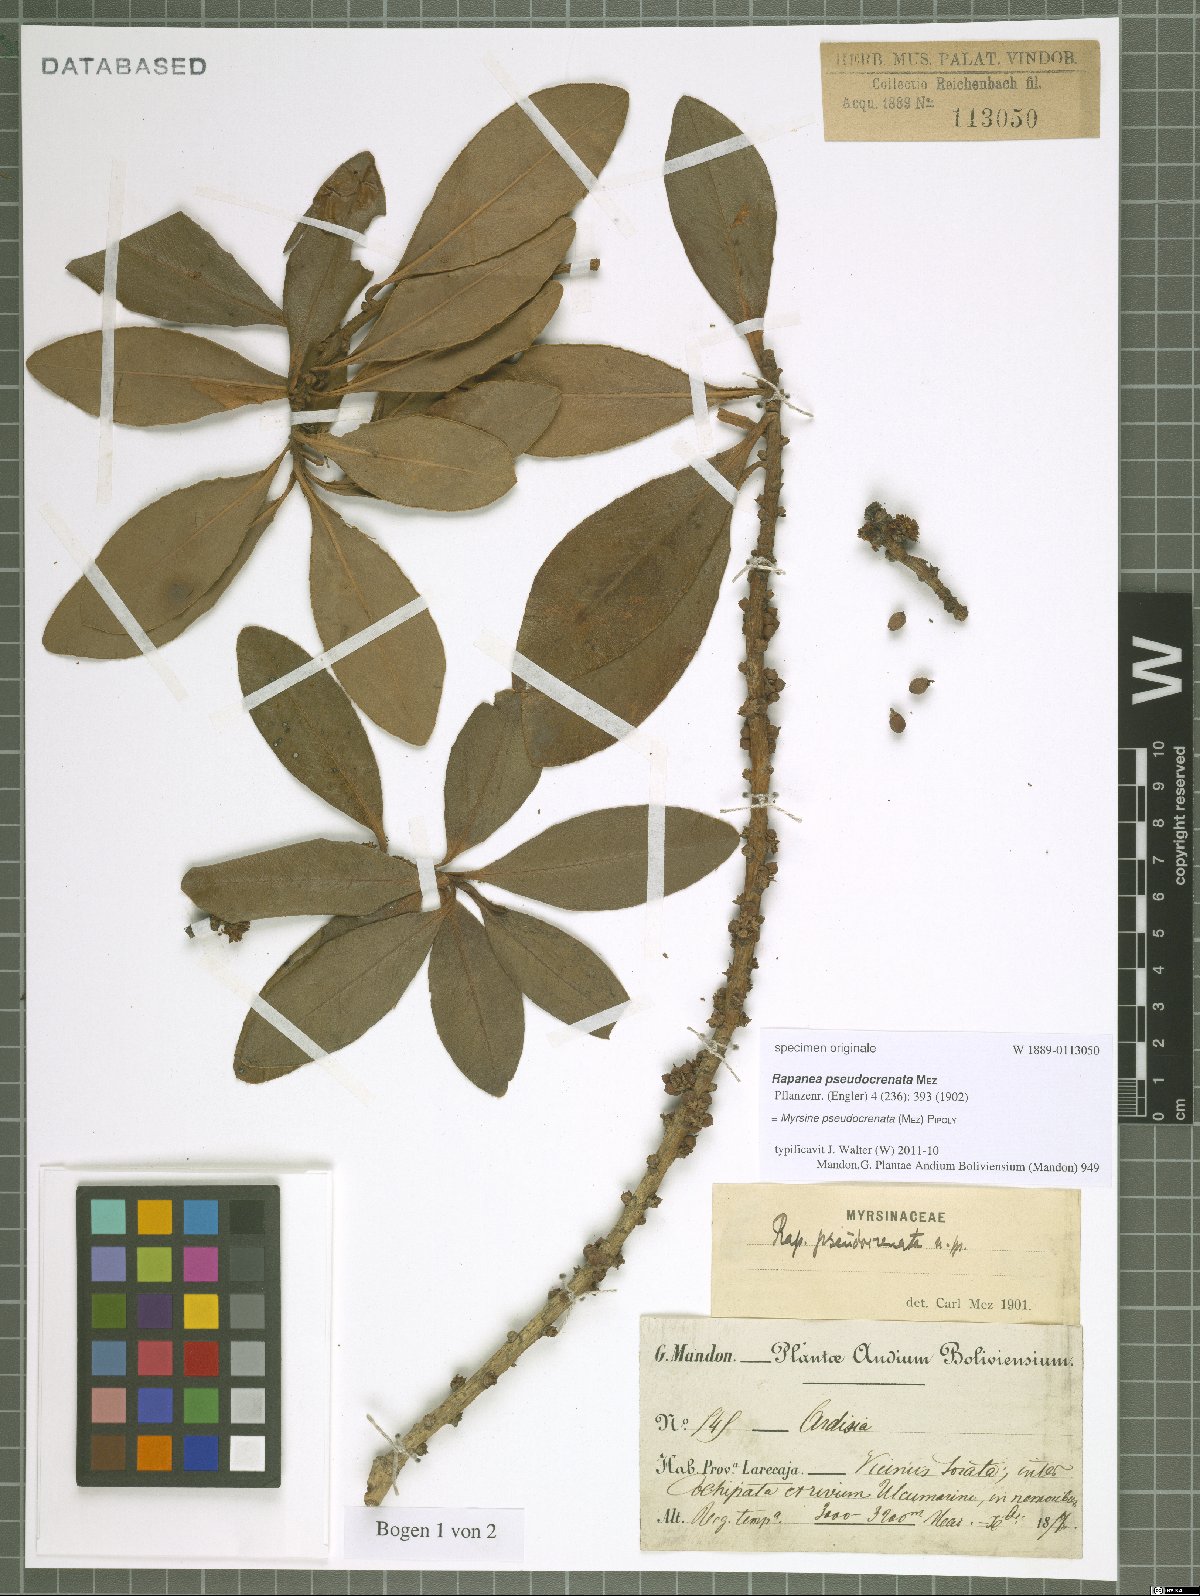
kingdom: Plantae
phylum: Tracheophyta
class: Magnoliopsida
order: Ericales
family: Primulaceae
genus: Myrsine
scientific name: Myrsine pseudocrenata
